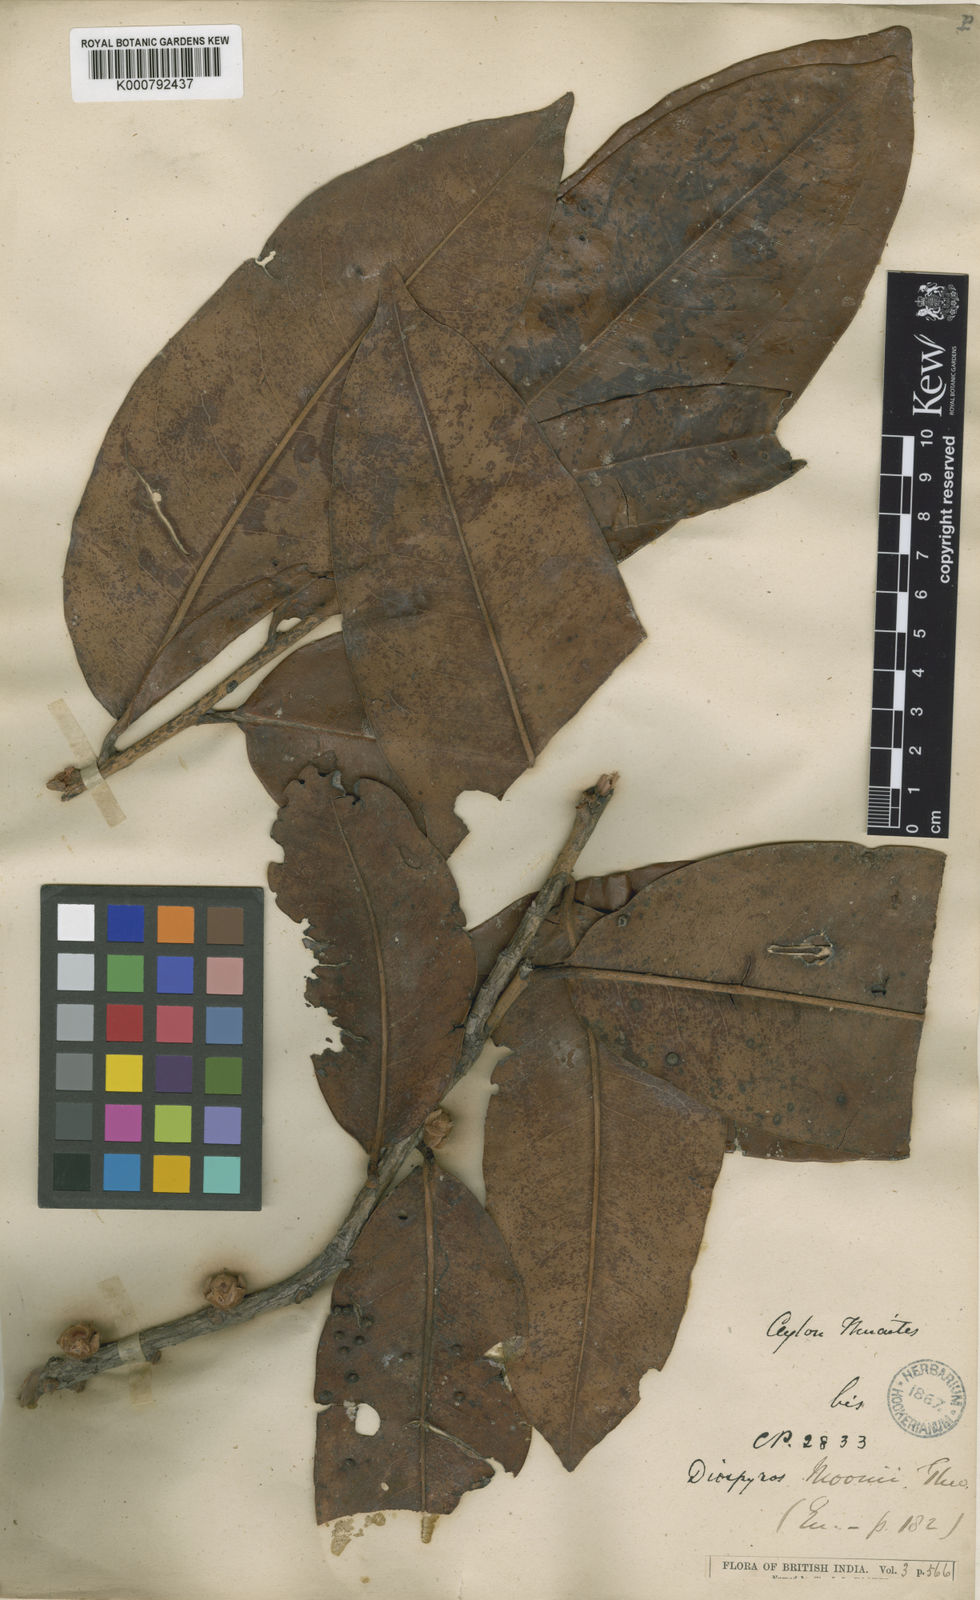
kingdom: Plantae
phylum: Tracheophyta
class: Magnoliopsida
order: Ericales
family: Ebenaceae
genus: Diospyros
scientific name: Diospyros moonii
